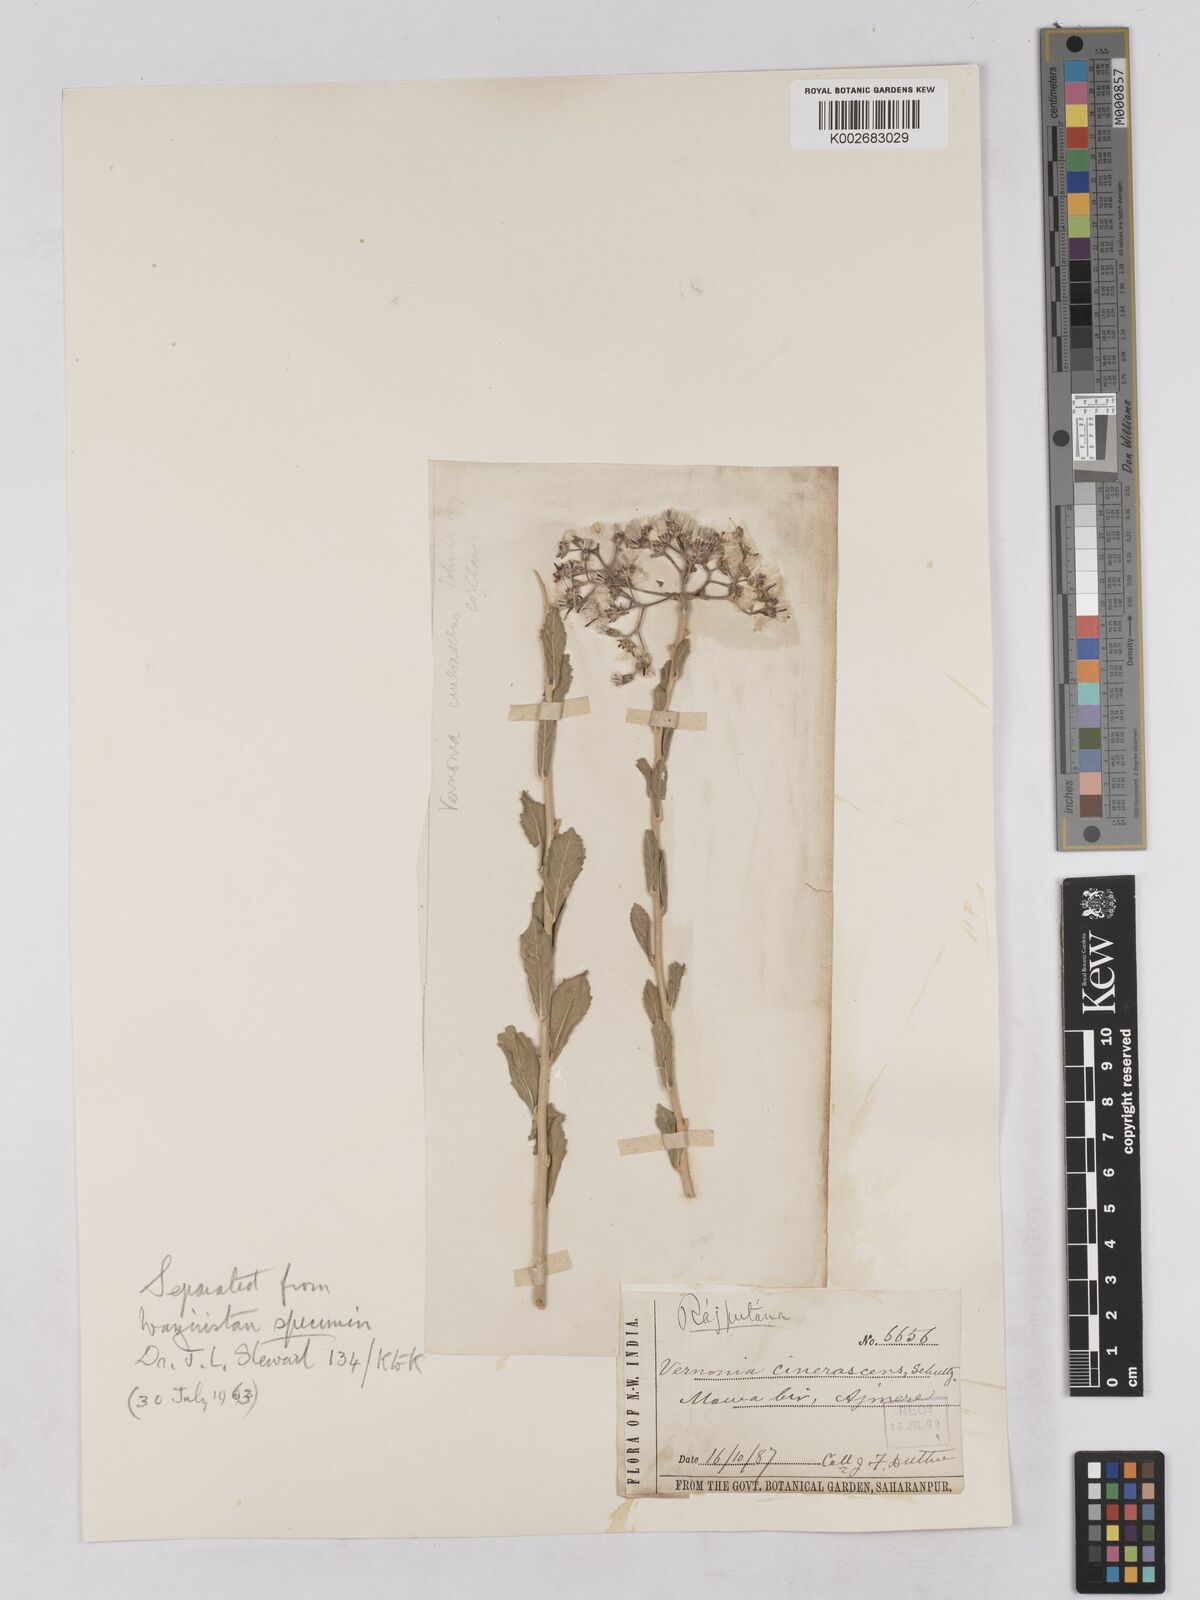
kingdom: Plantae
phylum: Tracheophyta
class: Magnoliopsida
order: Asterales
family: Asteraceae
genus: Orbivestus
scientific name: Orbivestus cinerascens
